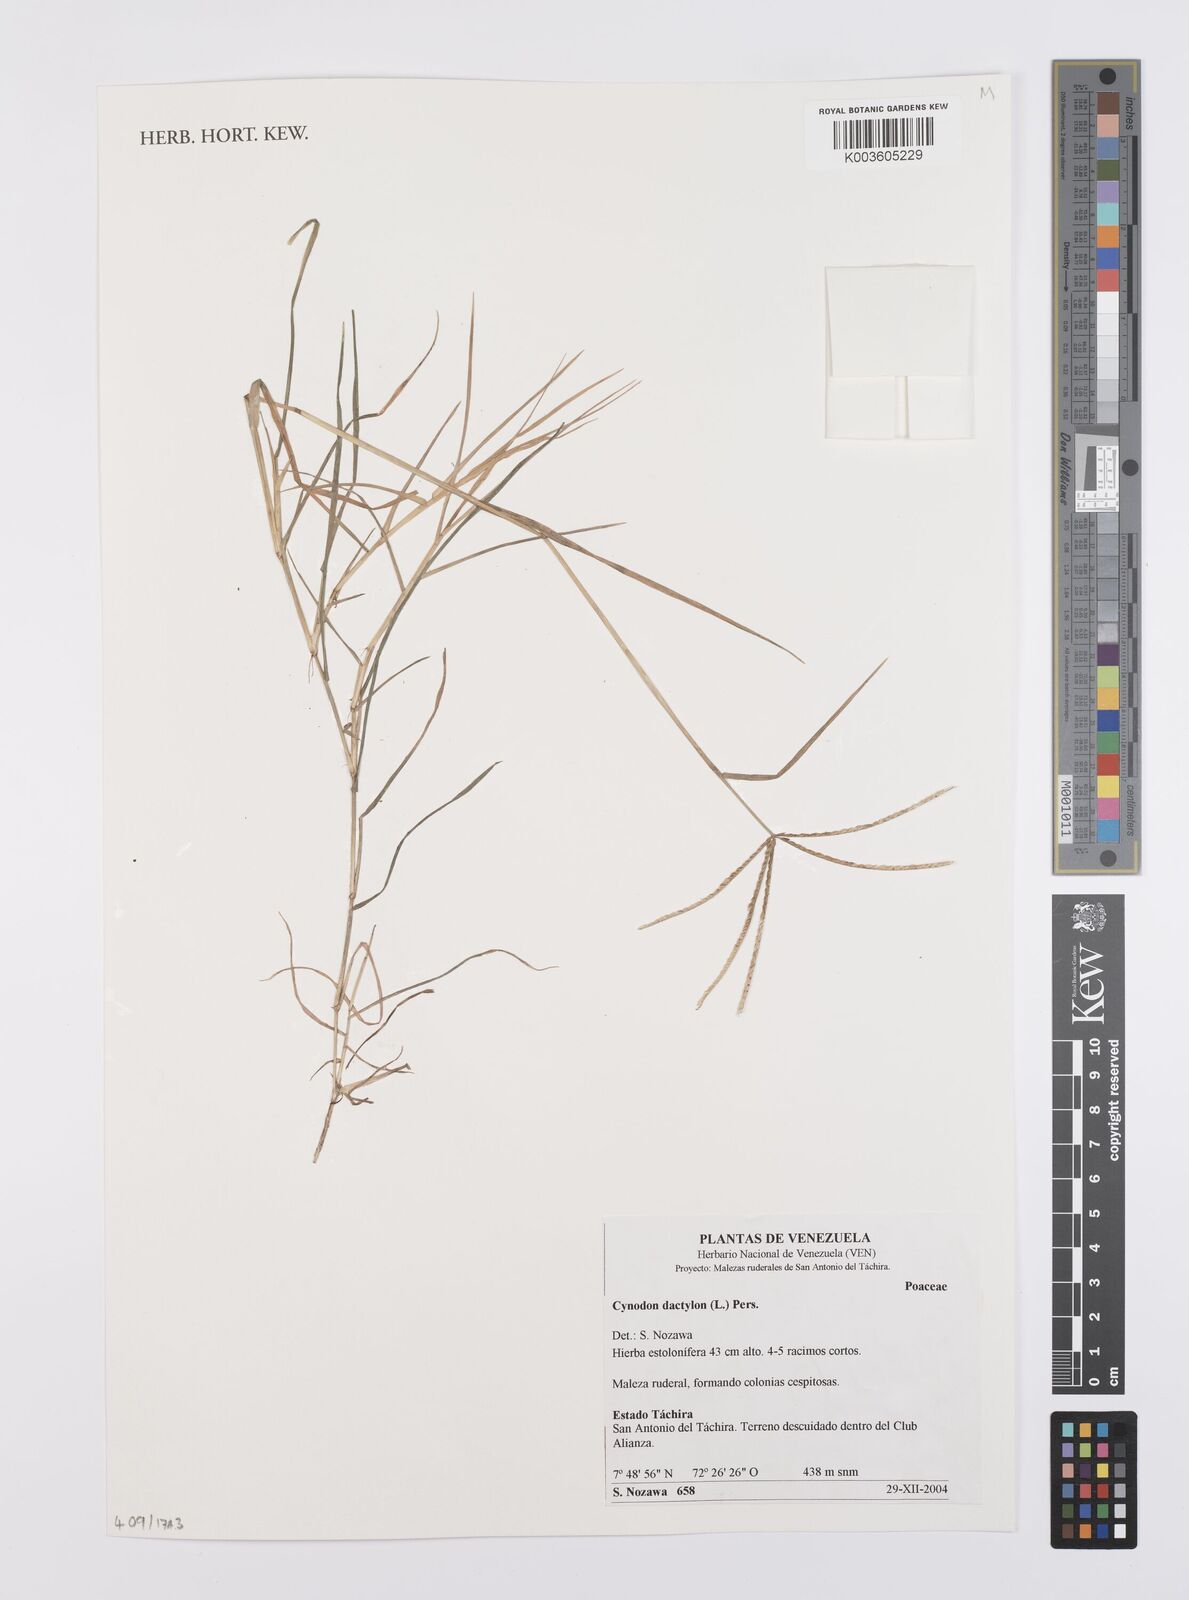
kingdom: Plantae
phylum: Tracheophyta
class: Liliopsida
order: Poales
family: Poaceae
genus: Cynodon
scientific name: Cynodon dactylon
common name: Bermuda grass
